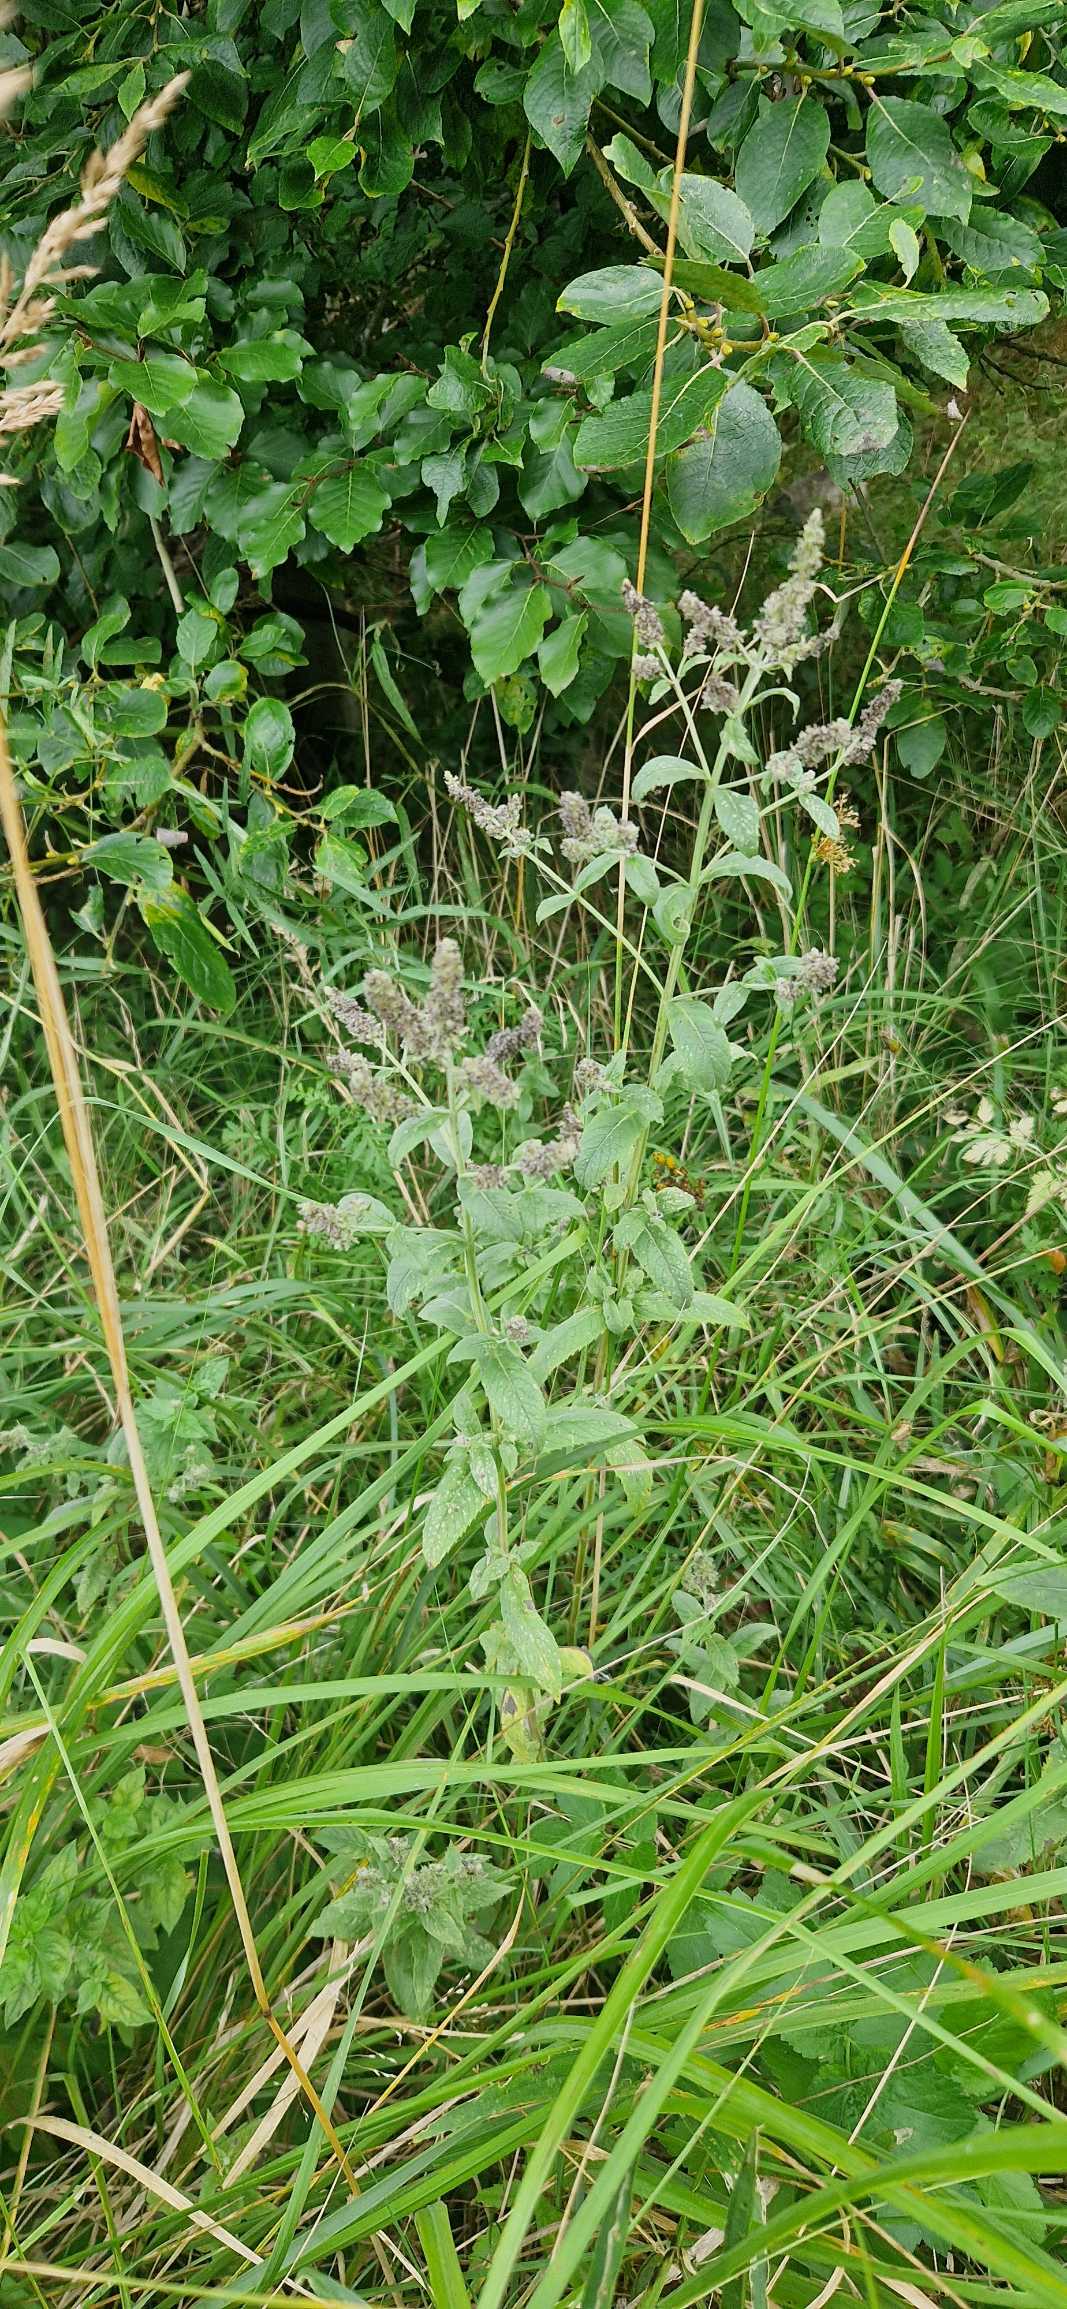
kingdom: Plantae
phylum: Tracheophyta
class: Magnoliopsida
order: Lamiales
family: Lamiaceae
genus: Mentha
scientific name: Mentha longifolia
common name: Grå mynte
